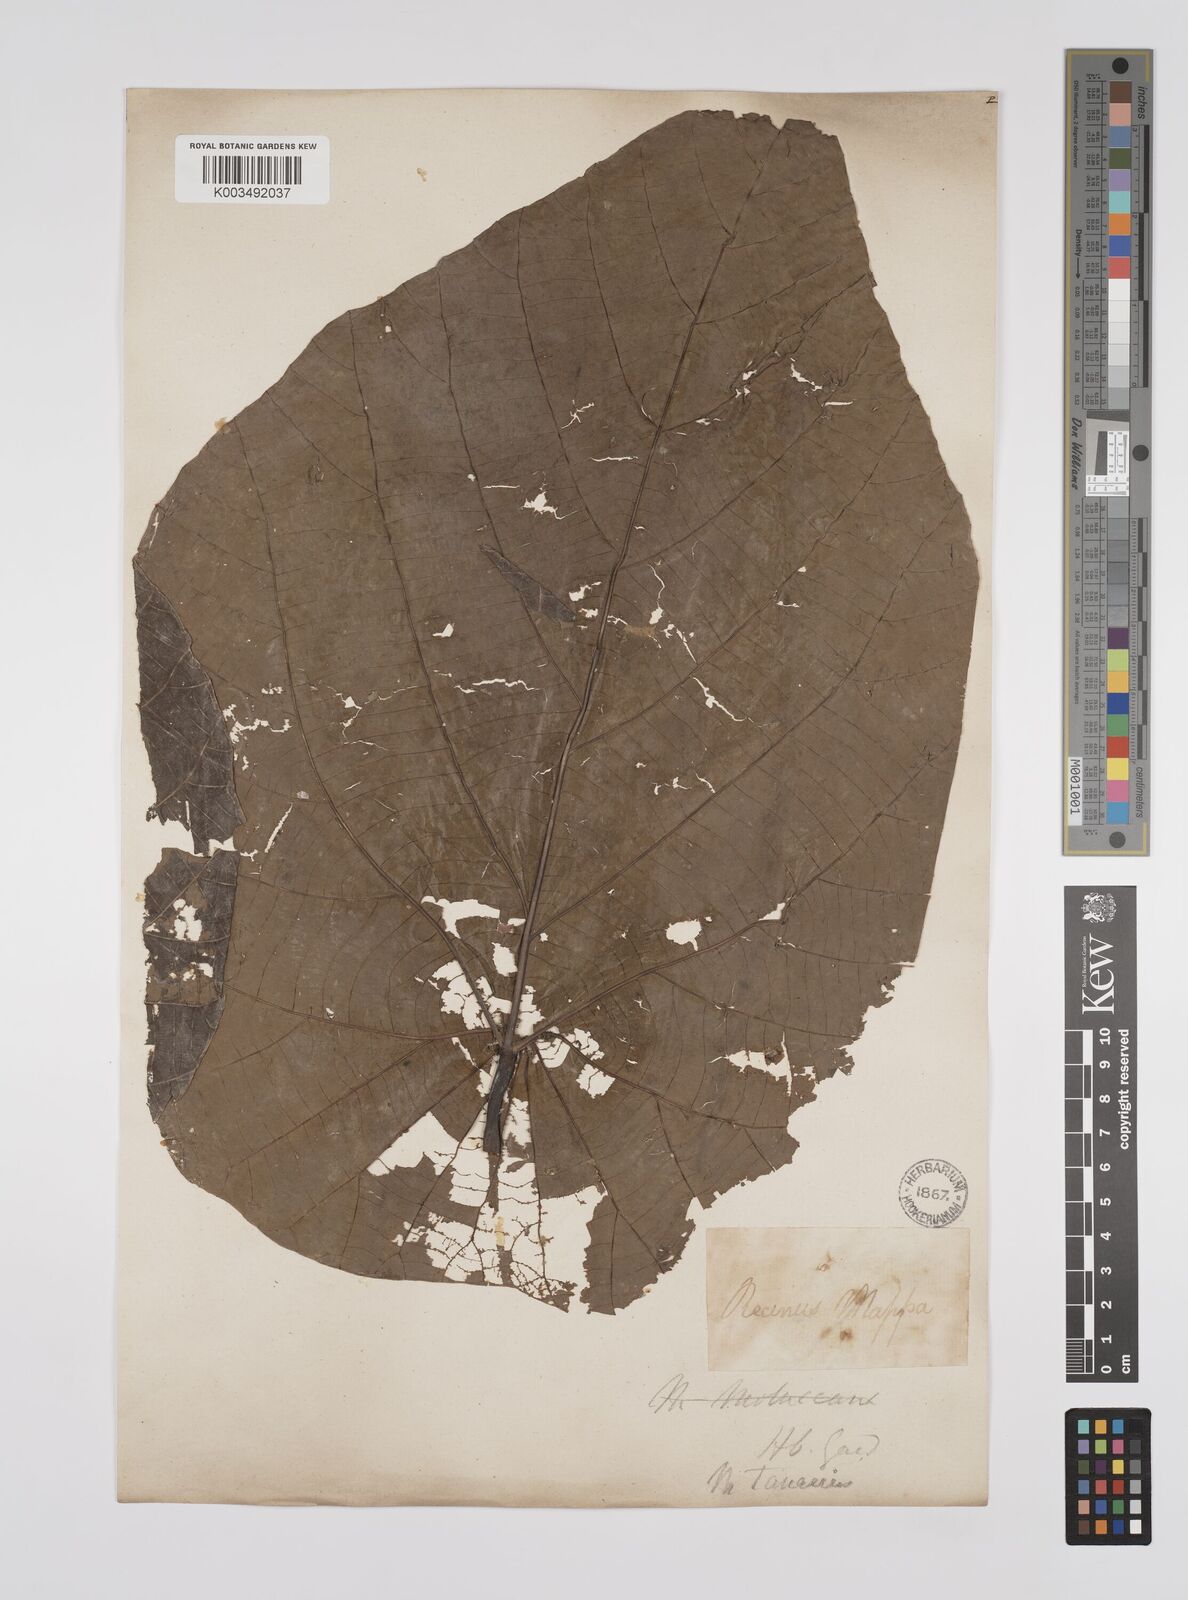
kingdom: Plantae
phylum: Tracheophyta
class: Magnoliopsida
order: Malpighiales
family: Euphorbiaceae
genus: Macaranga
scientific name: Macaranga tanarius
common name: Parasol leaf tree
